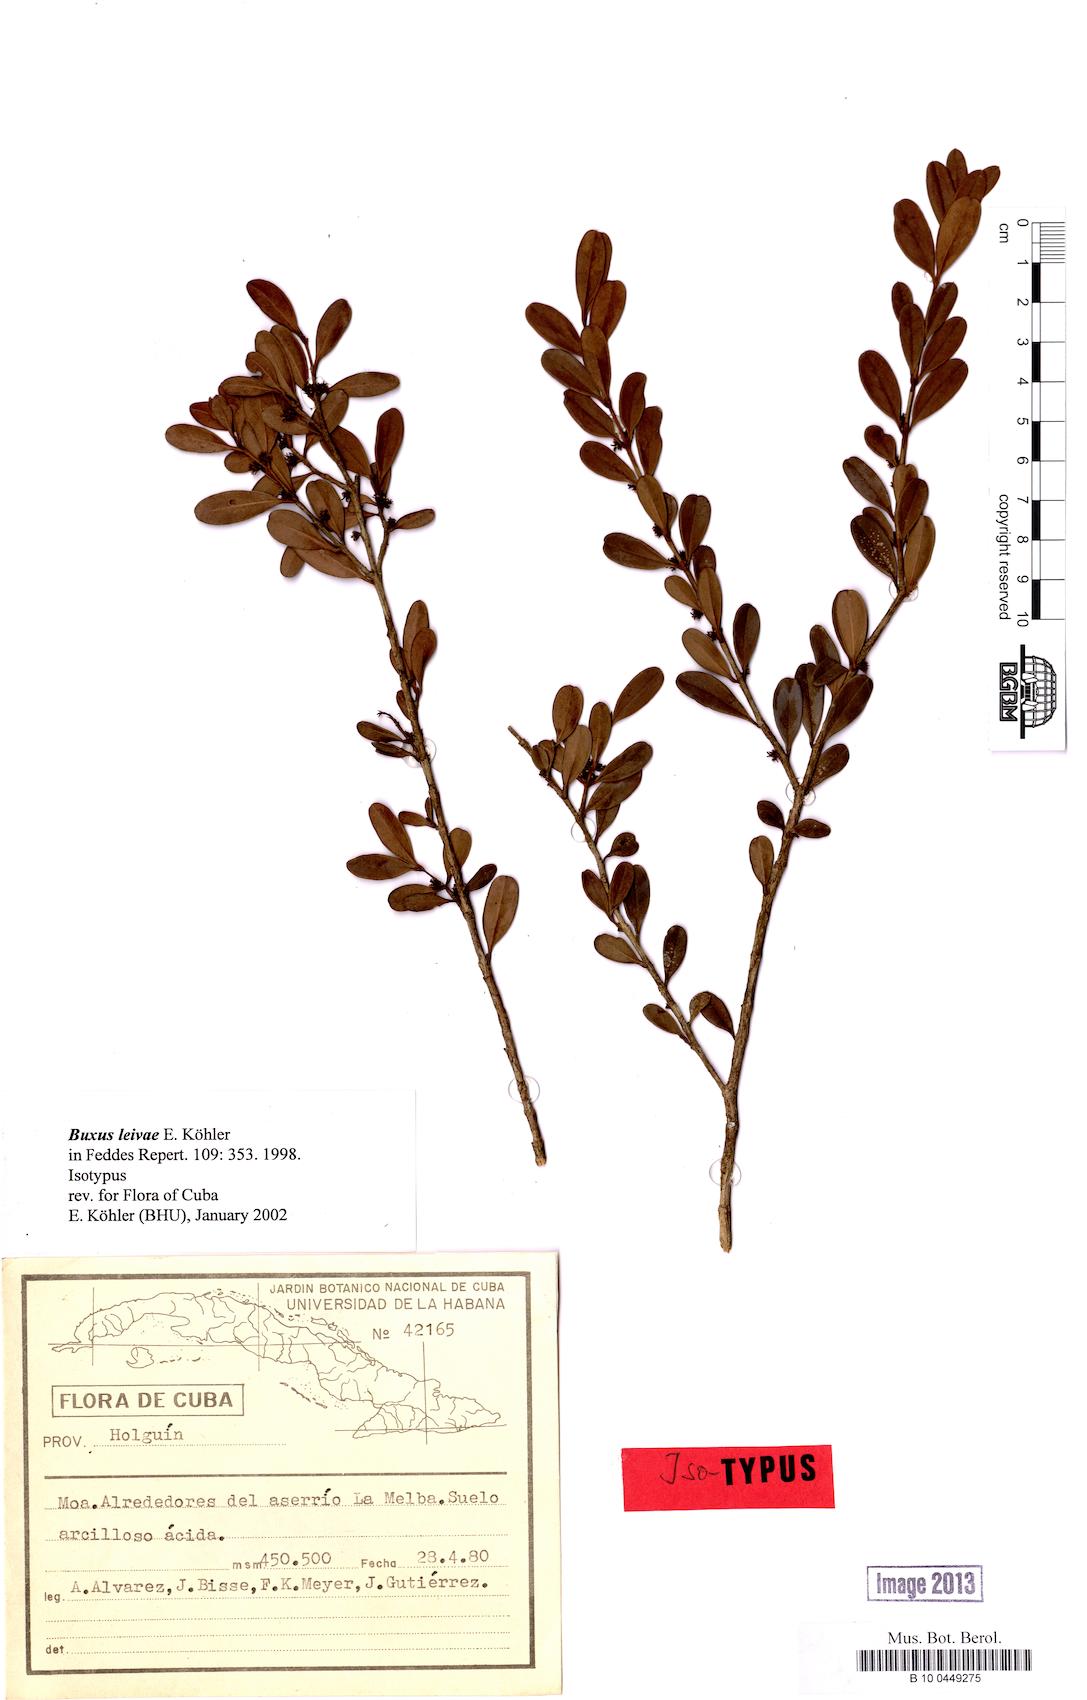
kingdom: Plantae
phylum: Tracheophyta
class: Magnoliopsida
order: Buxales
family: Buxaceae
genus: Buxus
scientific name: Buxus leivae
